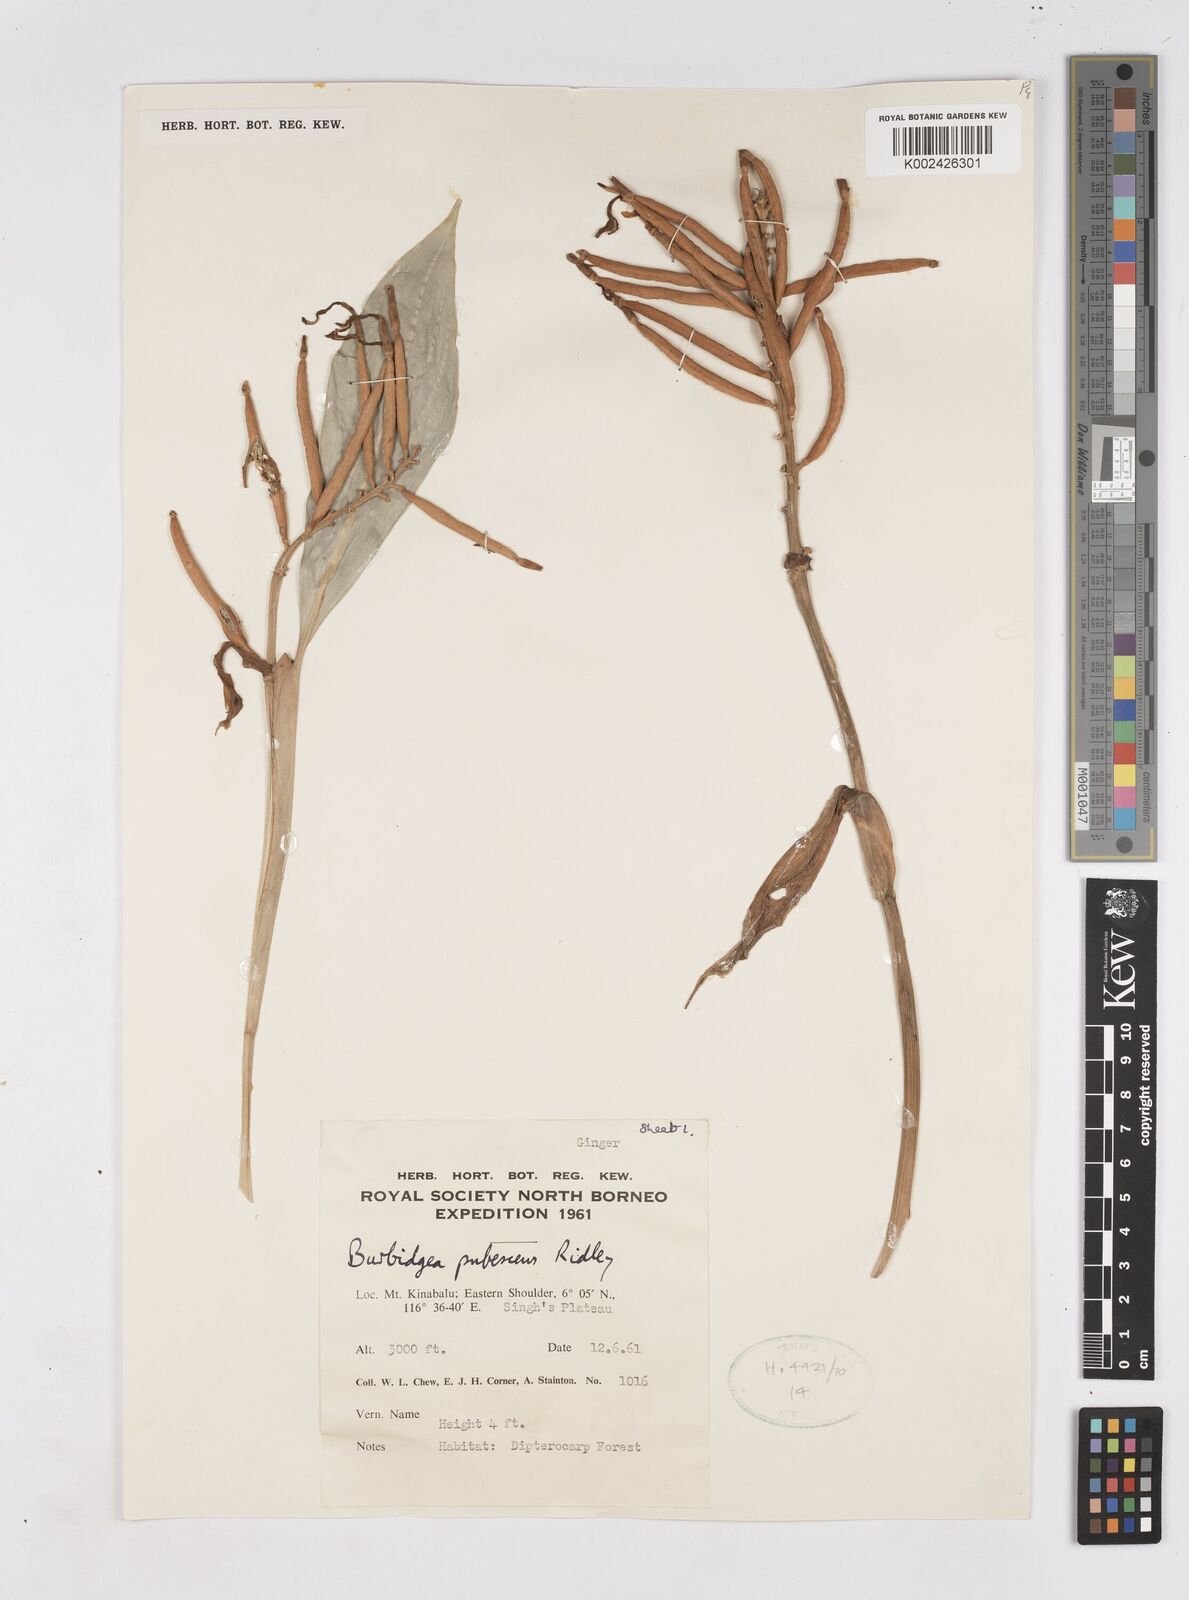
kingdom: Plantae
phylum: Tracheophyta
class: Liliopsida
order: Zingiberales
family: Zingiberaceae
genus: Burbidgea
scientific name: Burbidgea schizocheila
